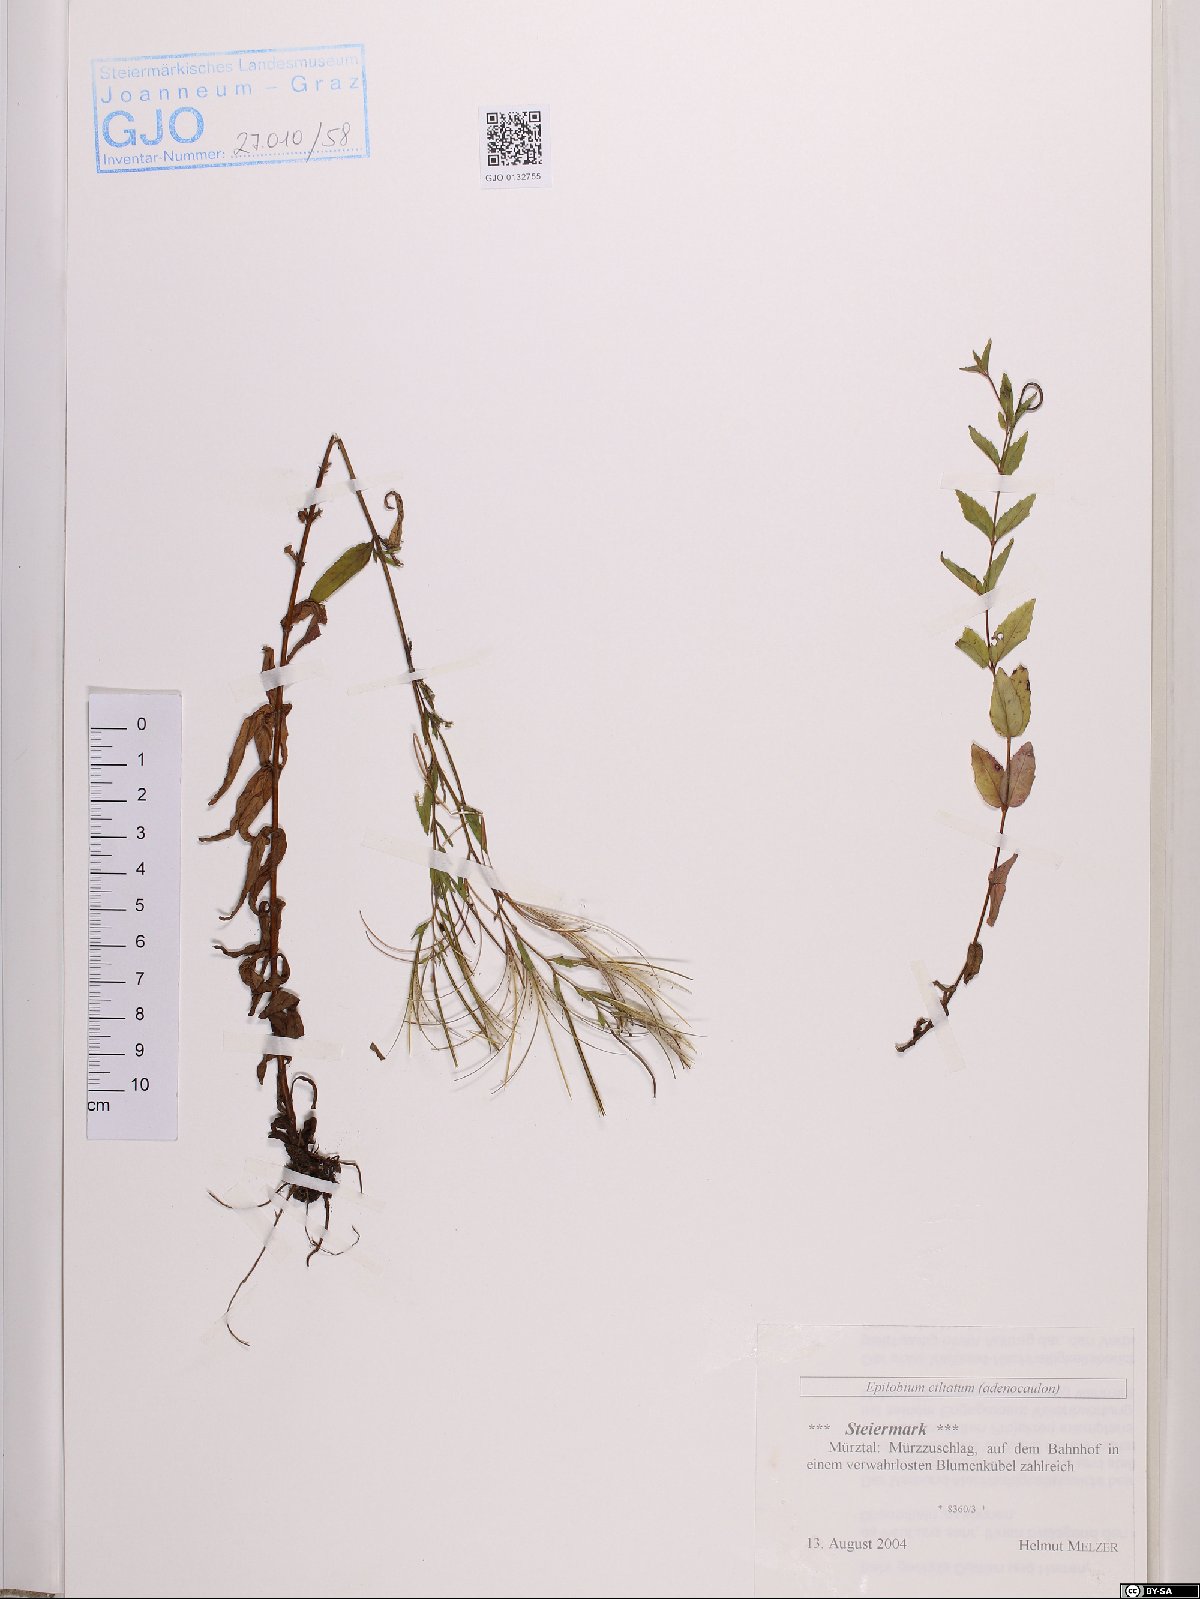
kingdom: Plantae
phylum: Tracheophyta
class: Magnoliopsida
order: Myrtales
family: Onagraceae
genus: Epilobium
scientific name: Epilobium ciliatum
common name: American willowherb
